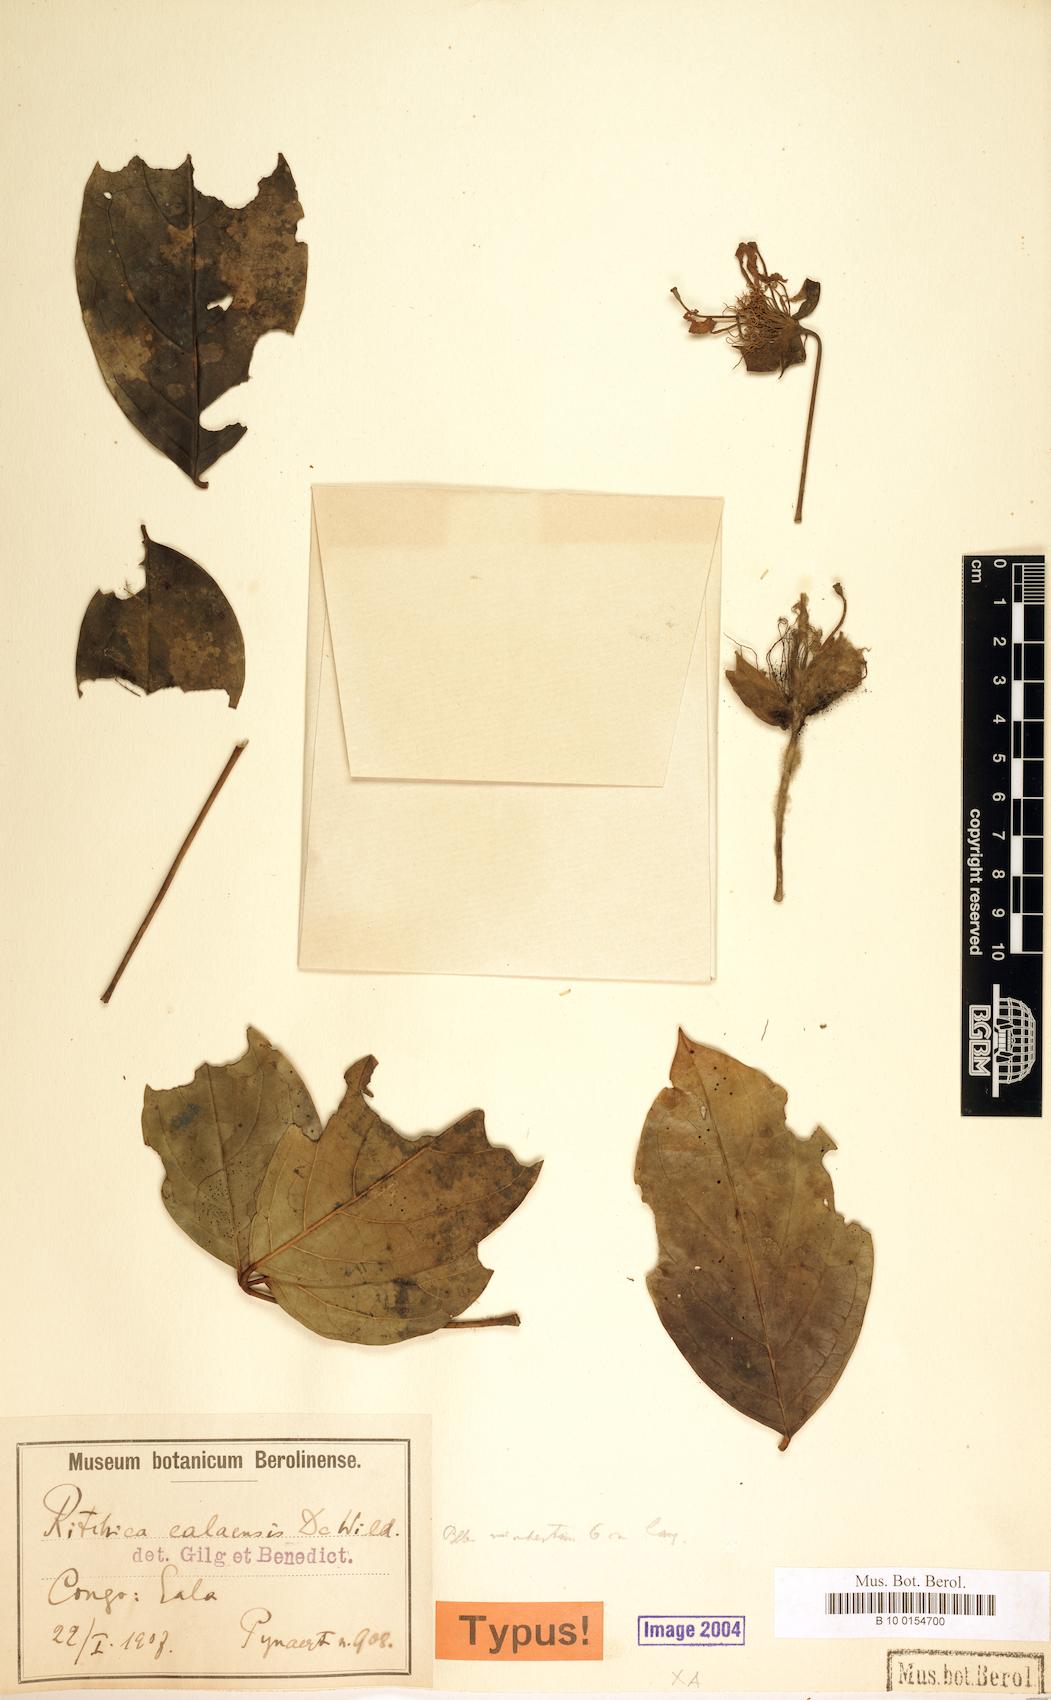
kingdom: Plantae
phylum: Tracheophyta
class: Magnoliopsida
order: Brassicales
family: Capparaceae
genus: Ritchiea
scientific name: Ritchiea capparoides
